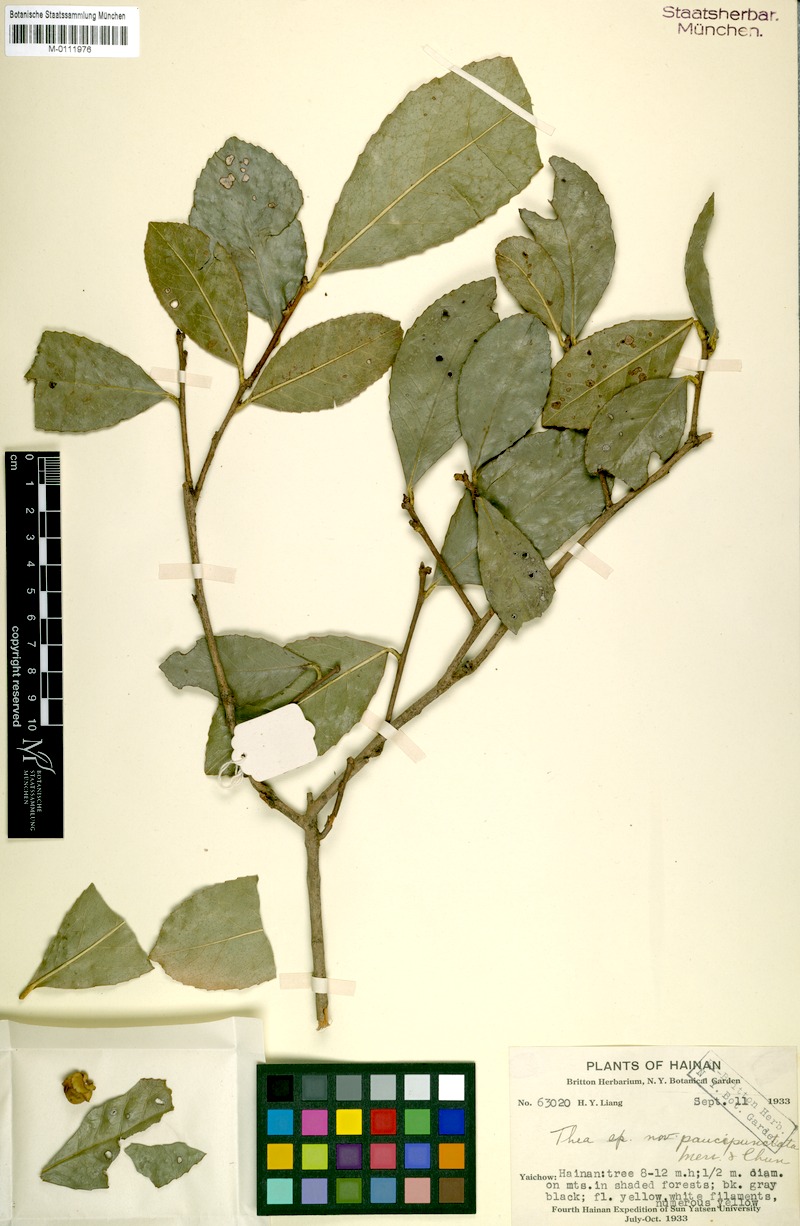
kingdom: Plantae
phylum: Tracheophyta
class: Magnoliopsida
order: Ericales
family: Theaceae
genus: Camellia
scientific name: Camellia paucipunctata
